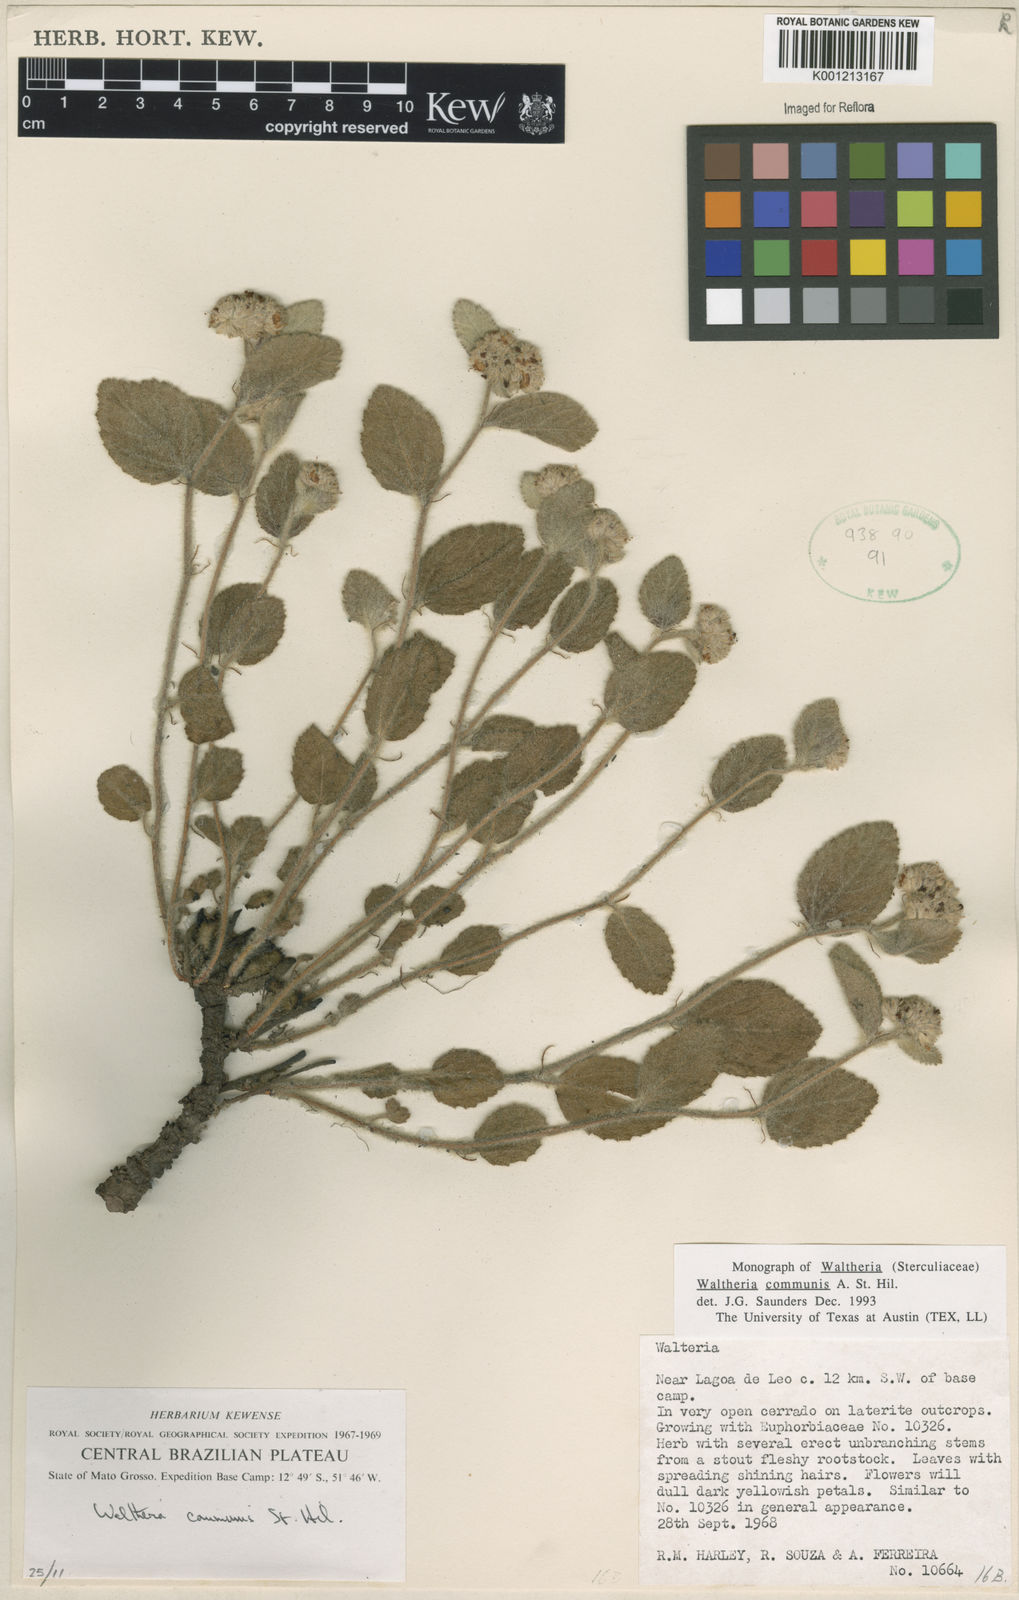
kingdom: Plantae
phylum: Tracheophyta
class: Magnoliopsida
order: Malvales
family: Malvaceae
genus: Waltheria
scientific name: Waltheria communis
